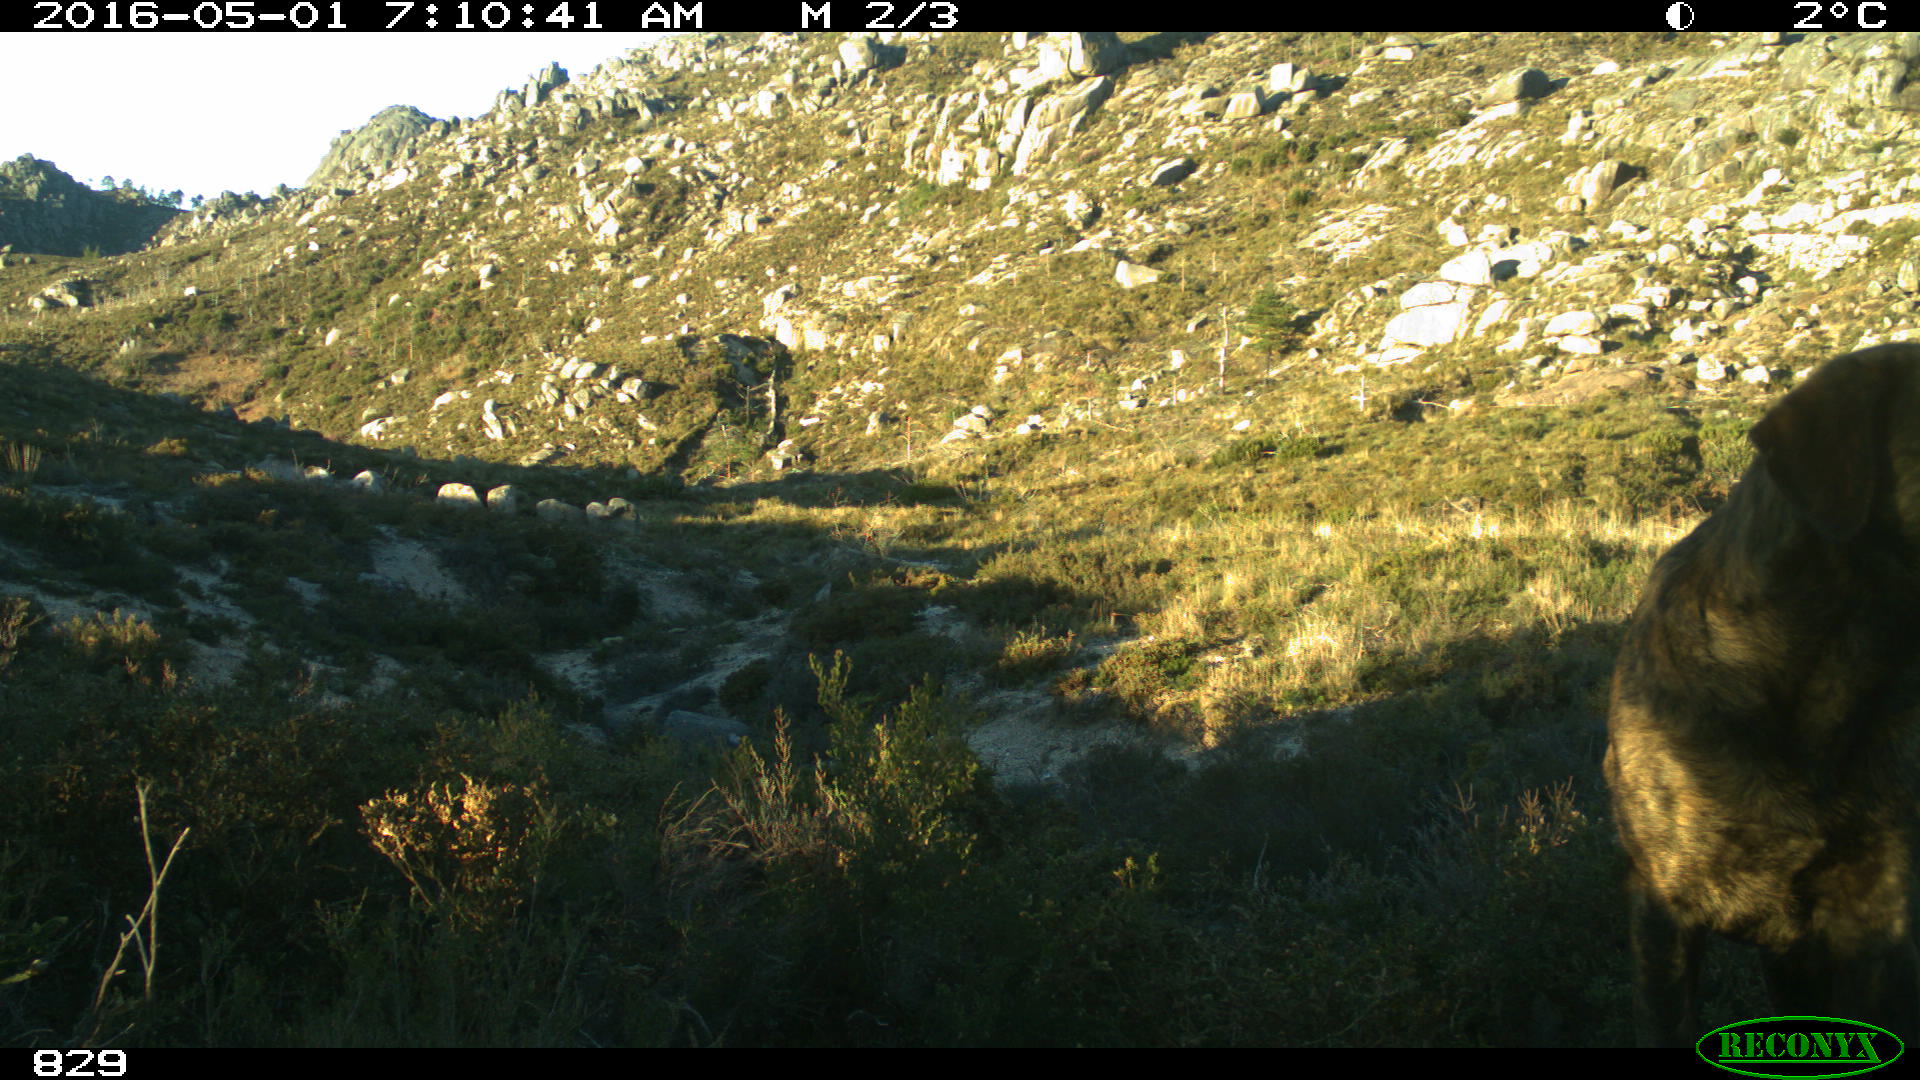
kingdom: Animalia
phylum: Chordata
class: Mammalia
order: Carnivora
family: Canidae
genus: Canis
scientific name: Canis lupus
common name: Gray wolf
